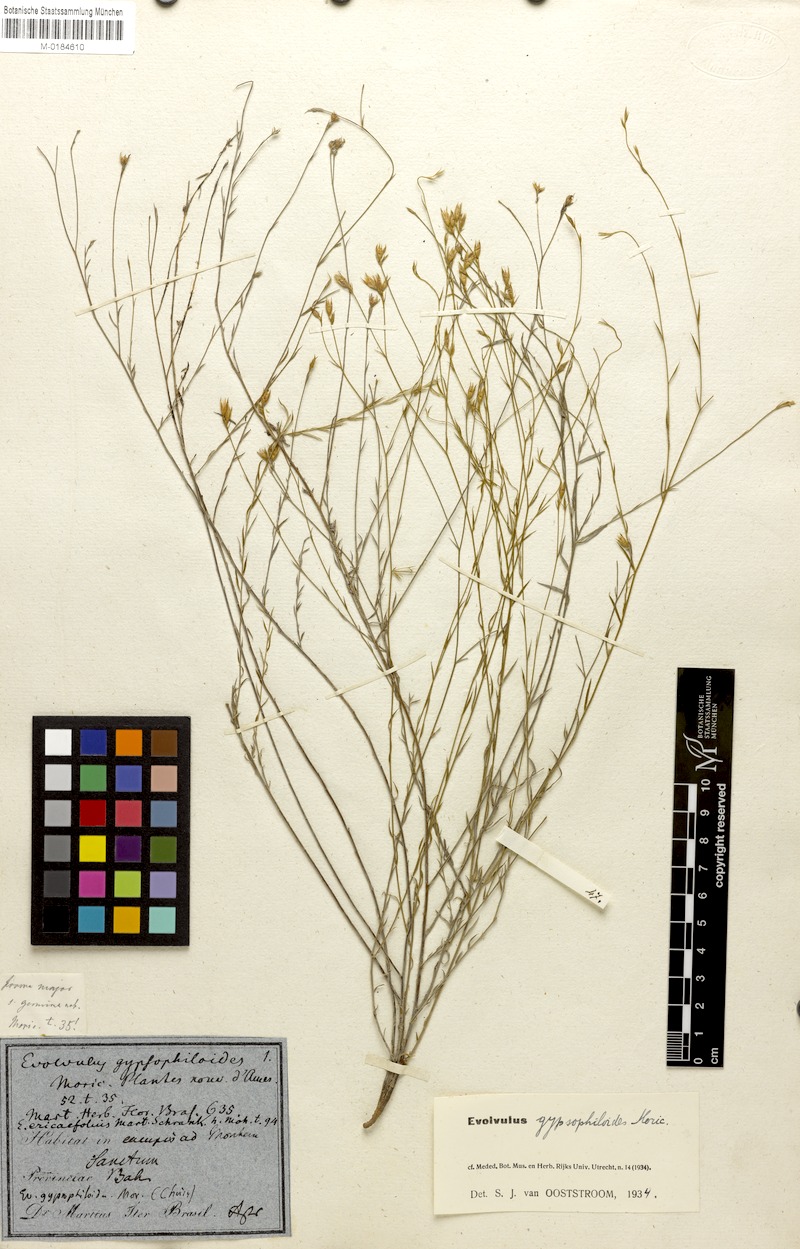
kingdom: Plantae
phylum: Tracheophyta
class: Magnoliopsida
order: Solanales
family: Convolvulaceae
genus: Evolvulus
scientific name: Evolvulus gypsophiloides
